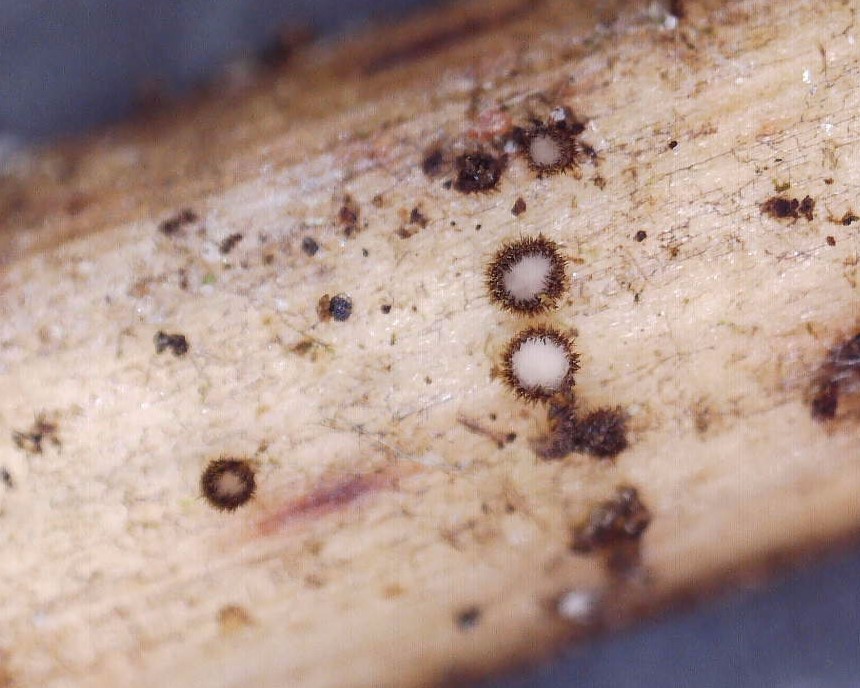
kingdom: Fungi
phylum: Ascomycota
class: Leotiomycetes
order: Helotiales
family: Solenopeziaceae
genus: Lasiobelonium
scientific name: Lasiobelonium nidulus
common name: rede-frynseskive
